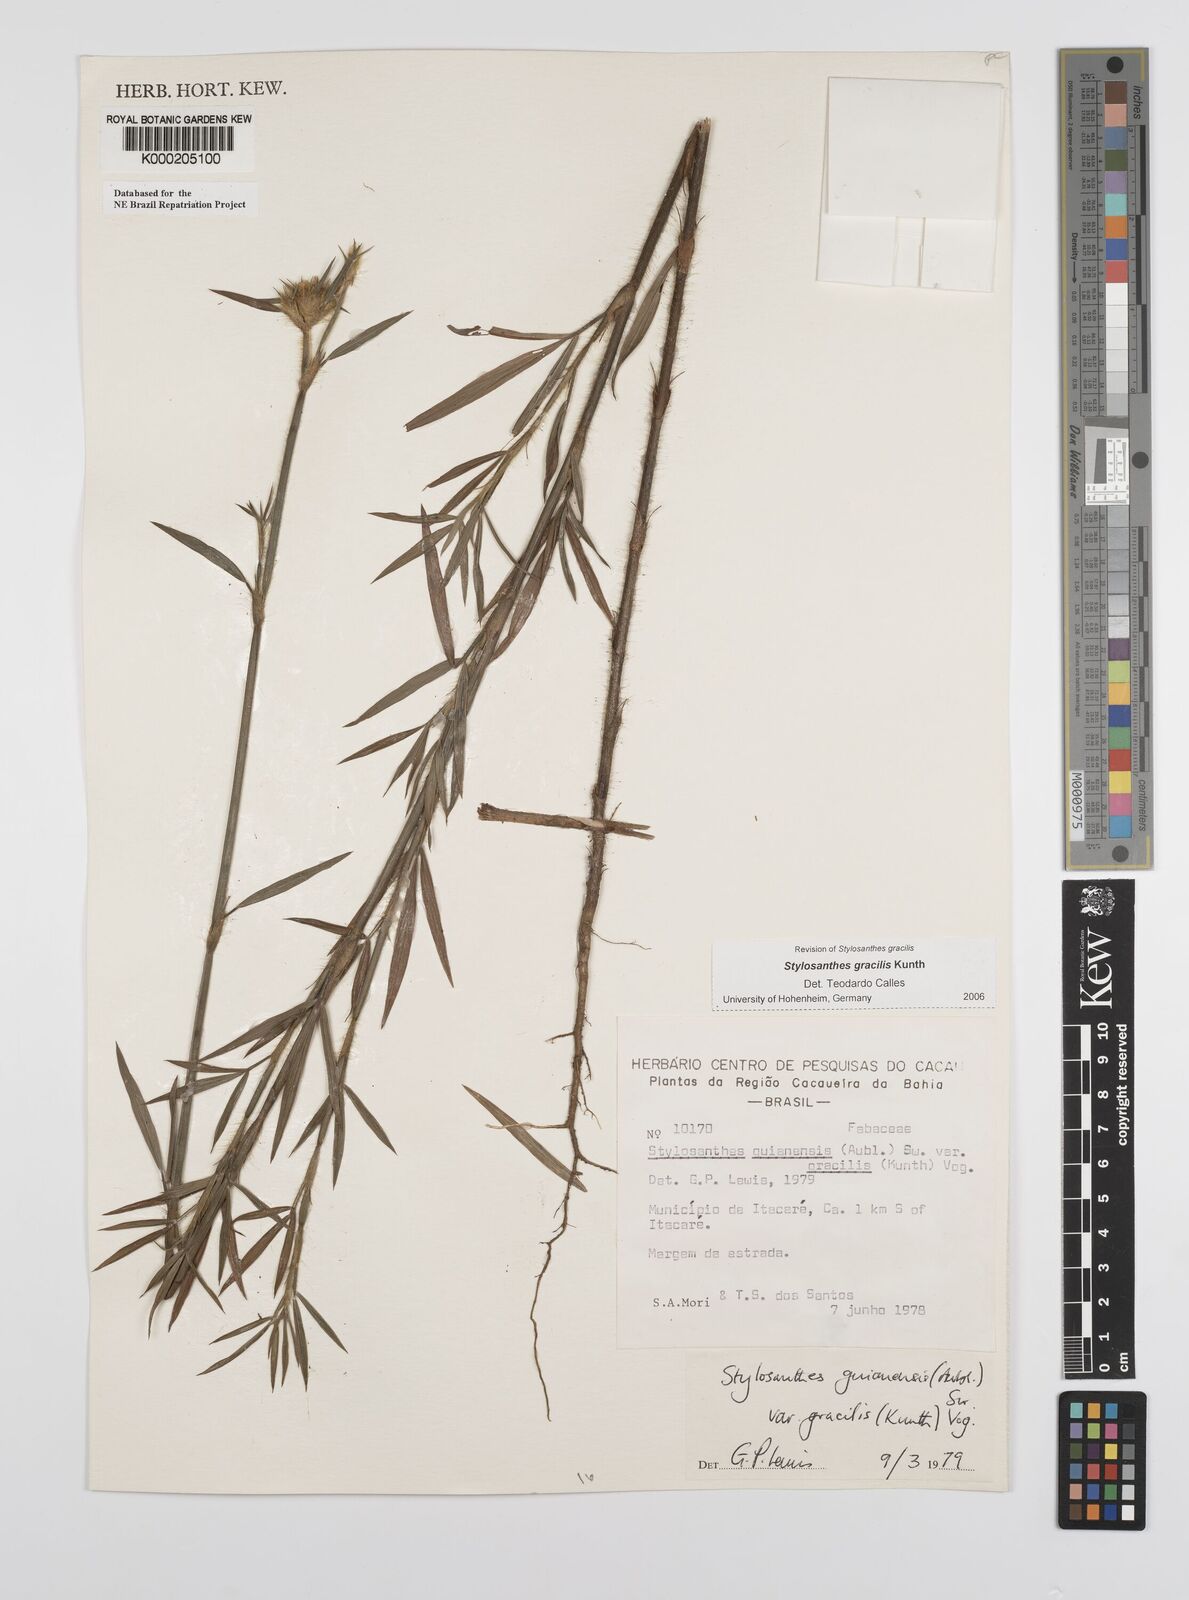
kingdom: Plantae
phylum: Tracheophyta
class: Magnoliopsida
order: Fabales
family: Fabaceae
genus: Stylosanthes
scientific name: Stylosanthes guianensis
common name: Pencil flower
